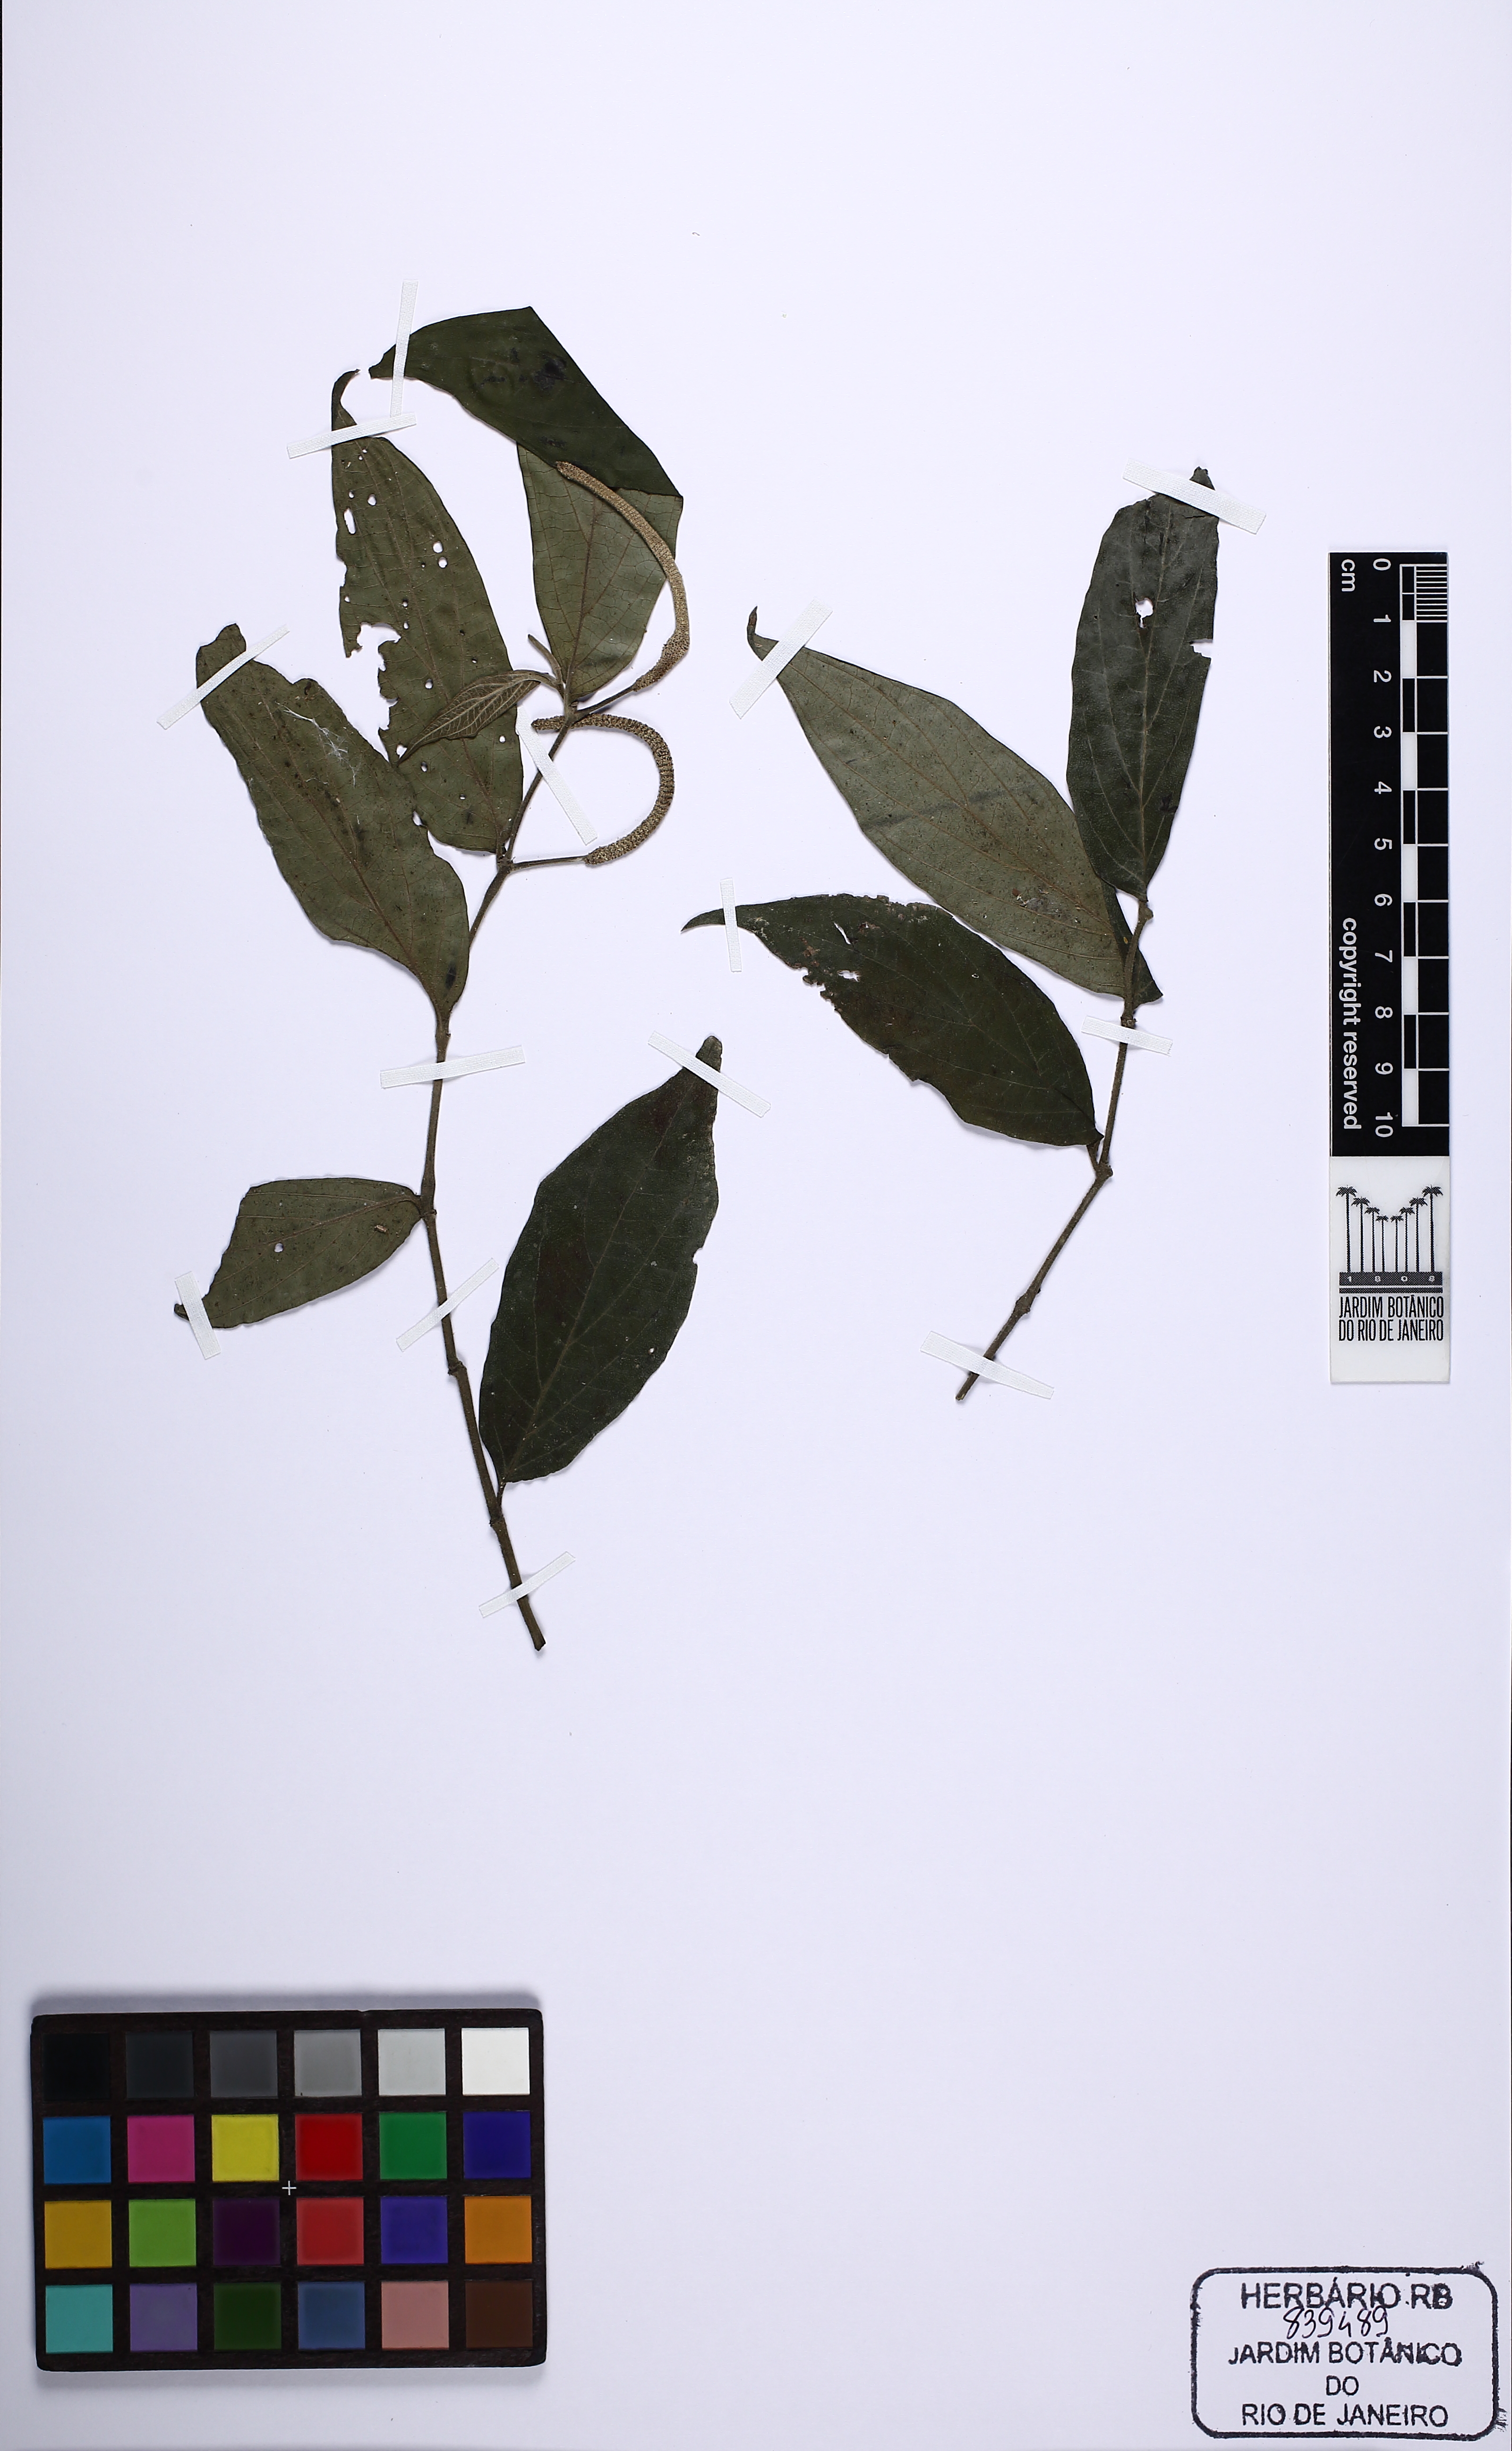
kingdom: Plantae
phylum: Tracheophyta
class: Magnoliopsida
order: Piperales
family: Piperaceae
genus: Piper
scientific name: Piper
